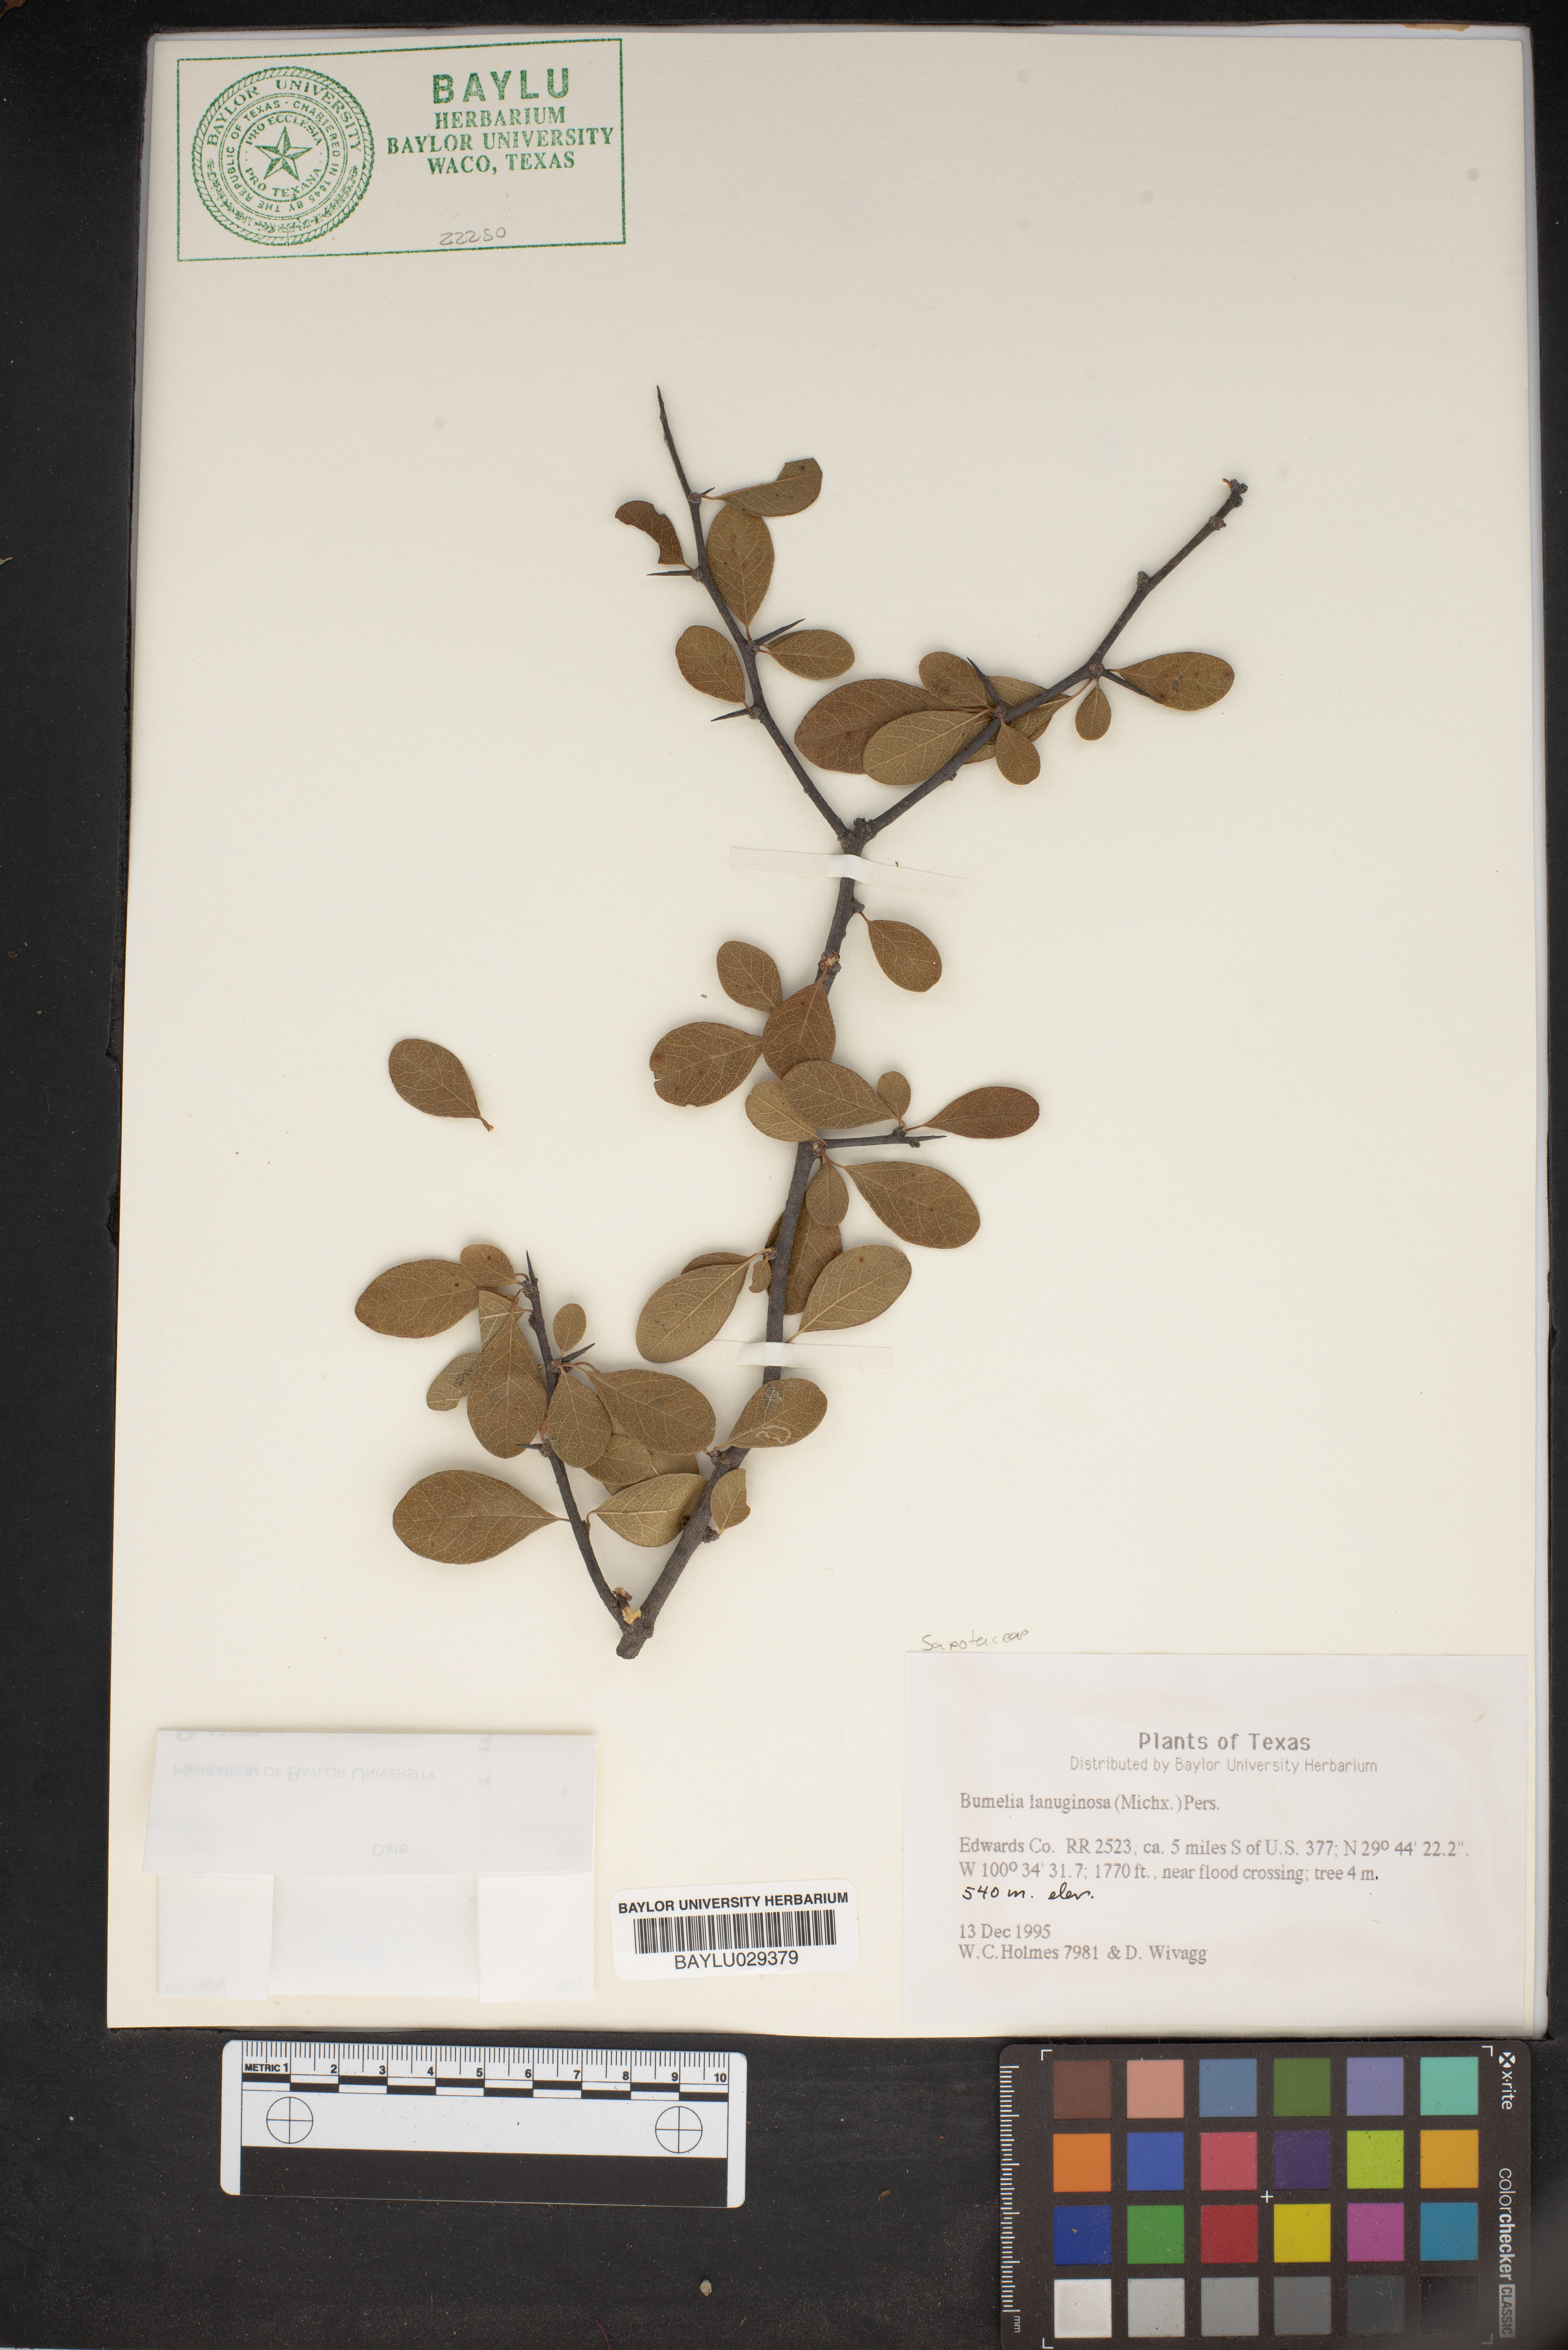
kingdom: Plantae
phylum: Tracheophyta
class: Magnoliopsida
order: Ericales
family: Sapotaceae
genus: Sideroxylon
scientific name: Sideroxylon lanuginosum
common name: Chittamwood
